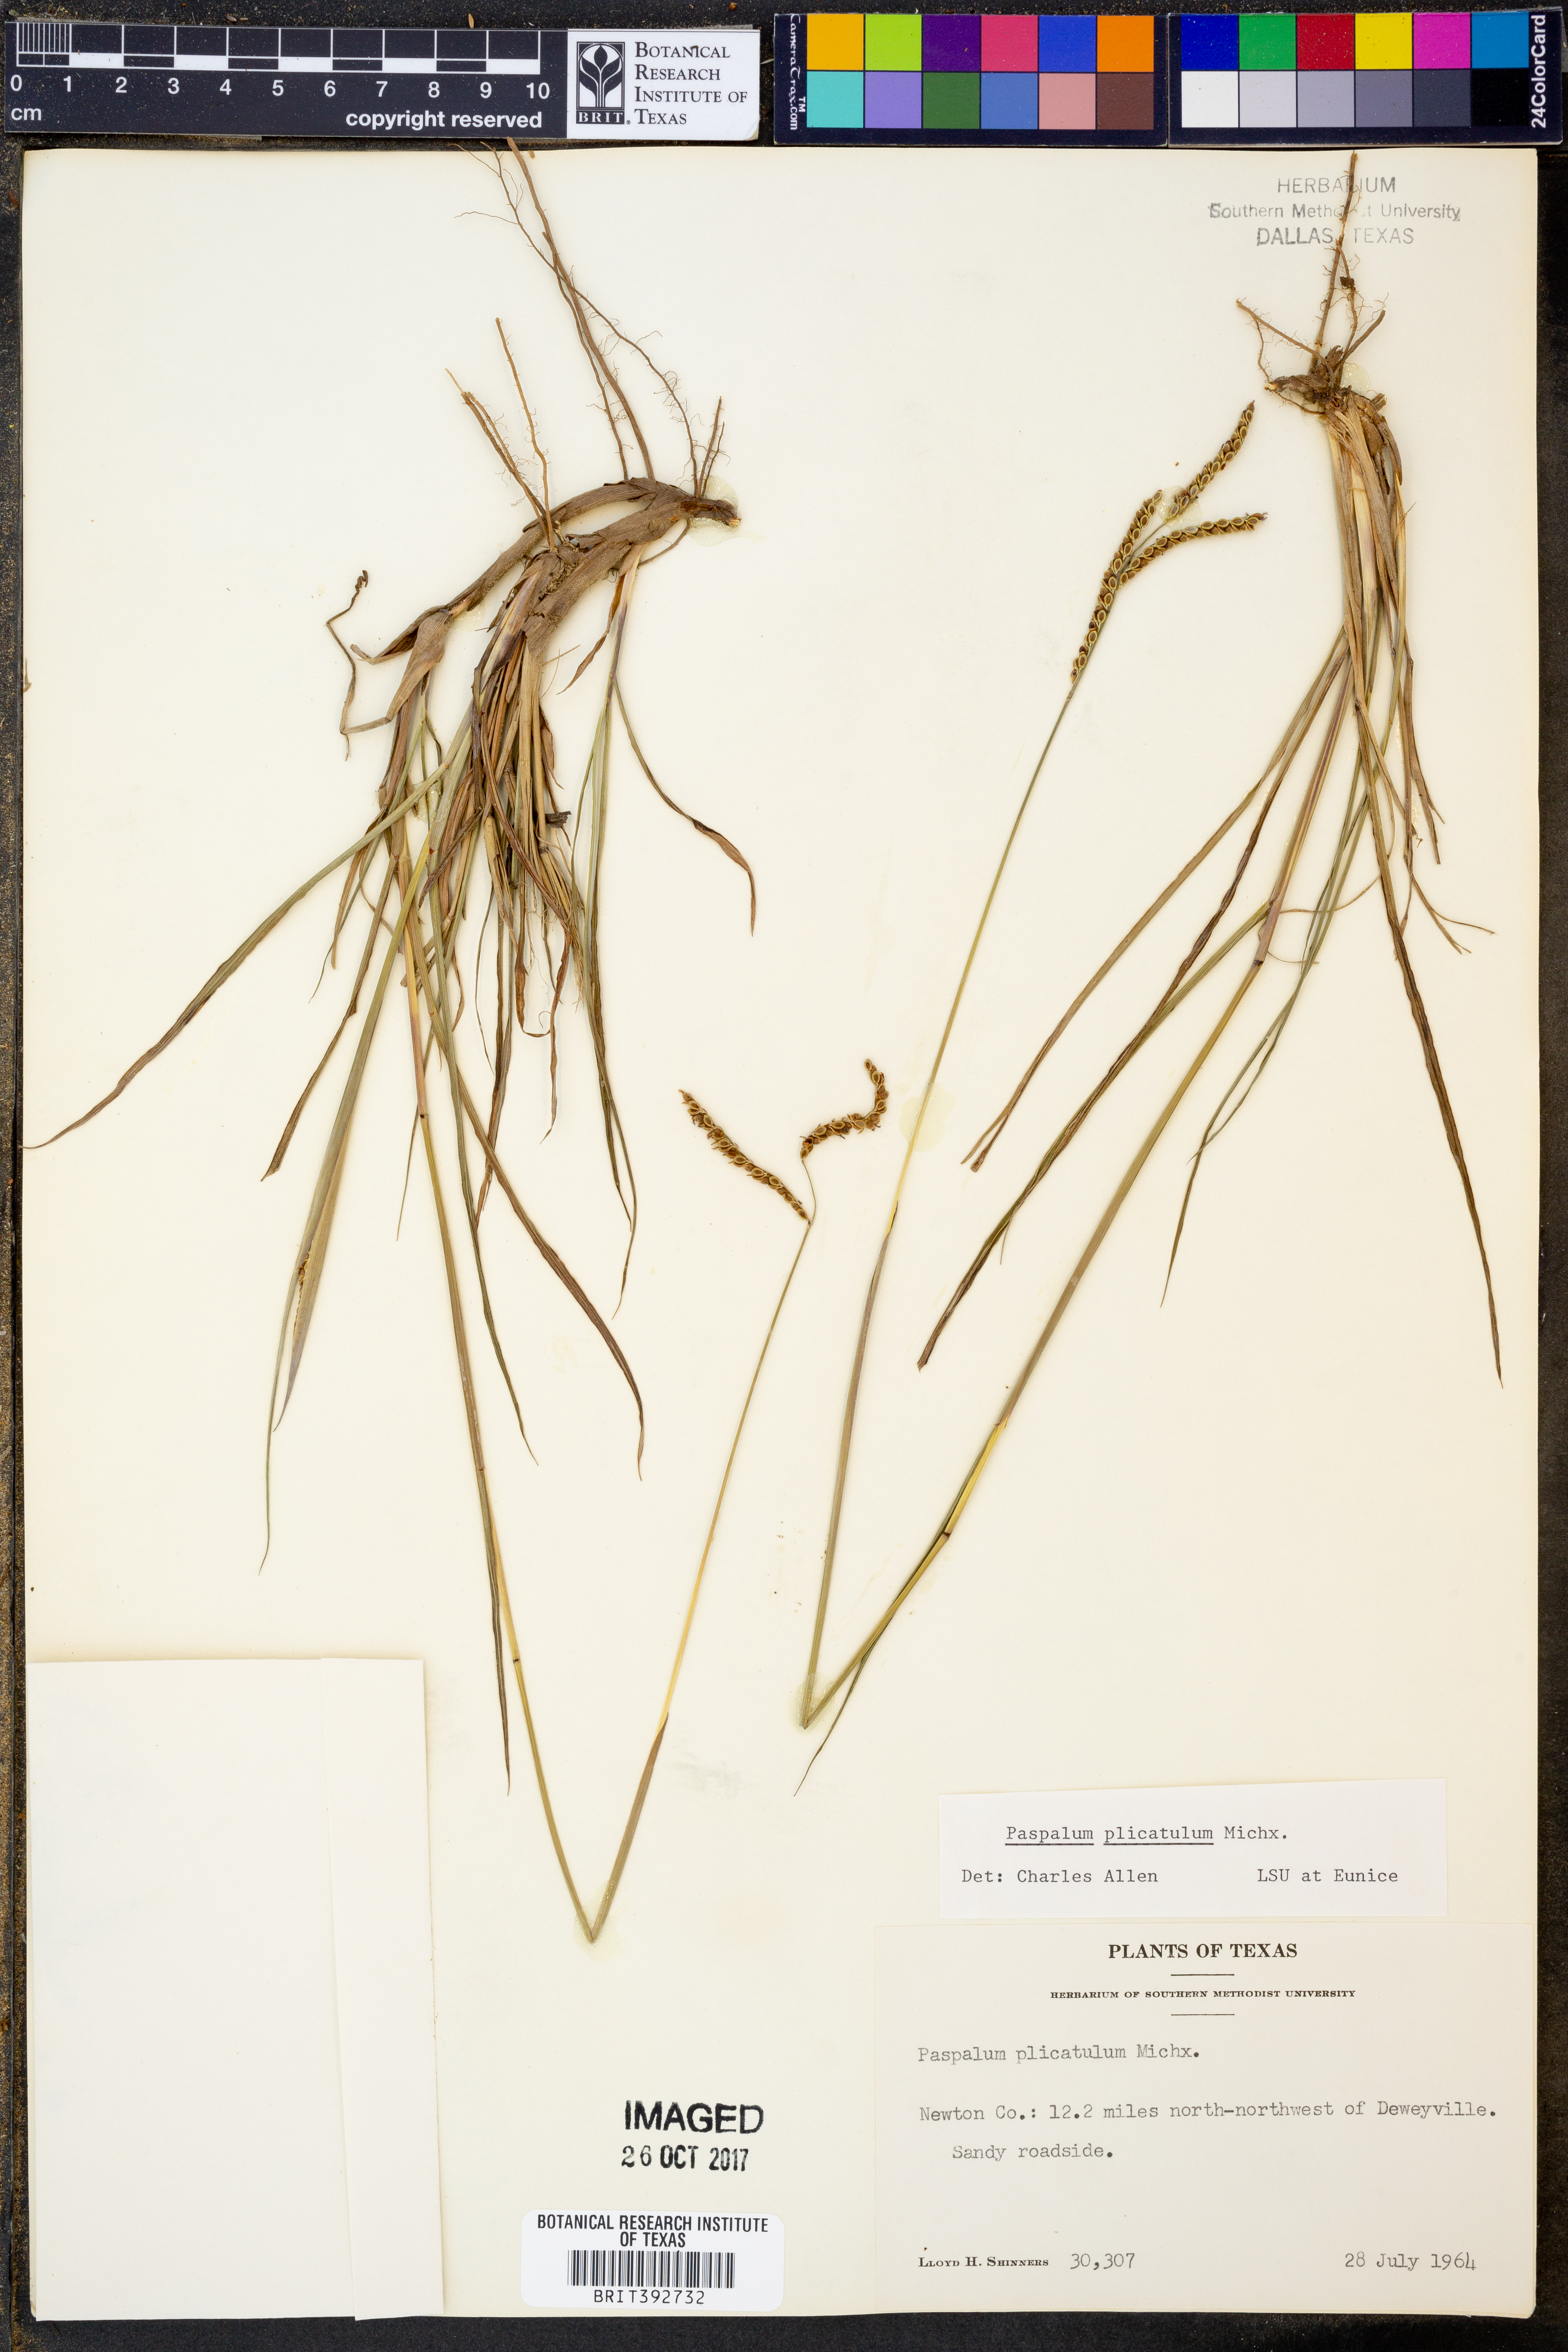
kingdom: Plantae
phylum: Tracheophyta
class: Liliopsida
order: Poales
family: Poaceae
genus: Paspalum
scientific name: Paspalum plicatulum
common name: Top paspalum
